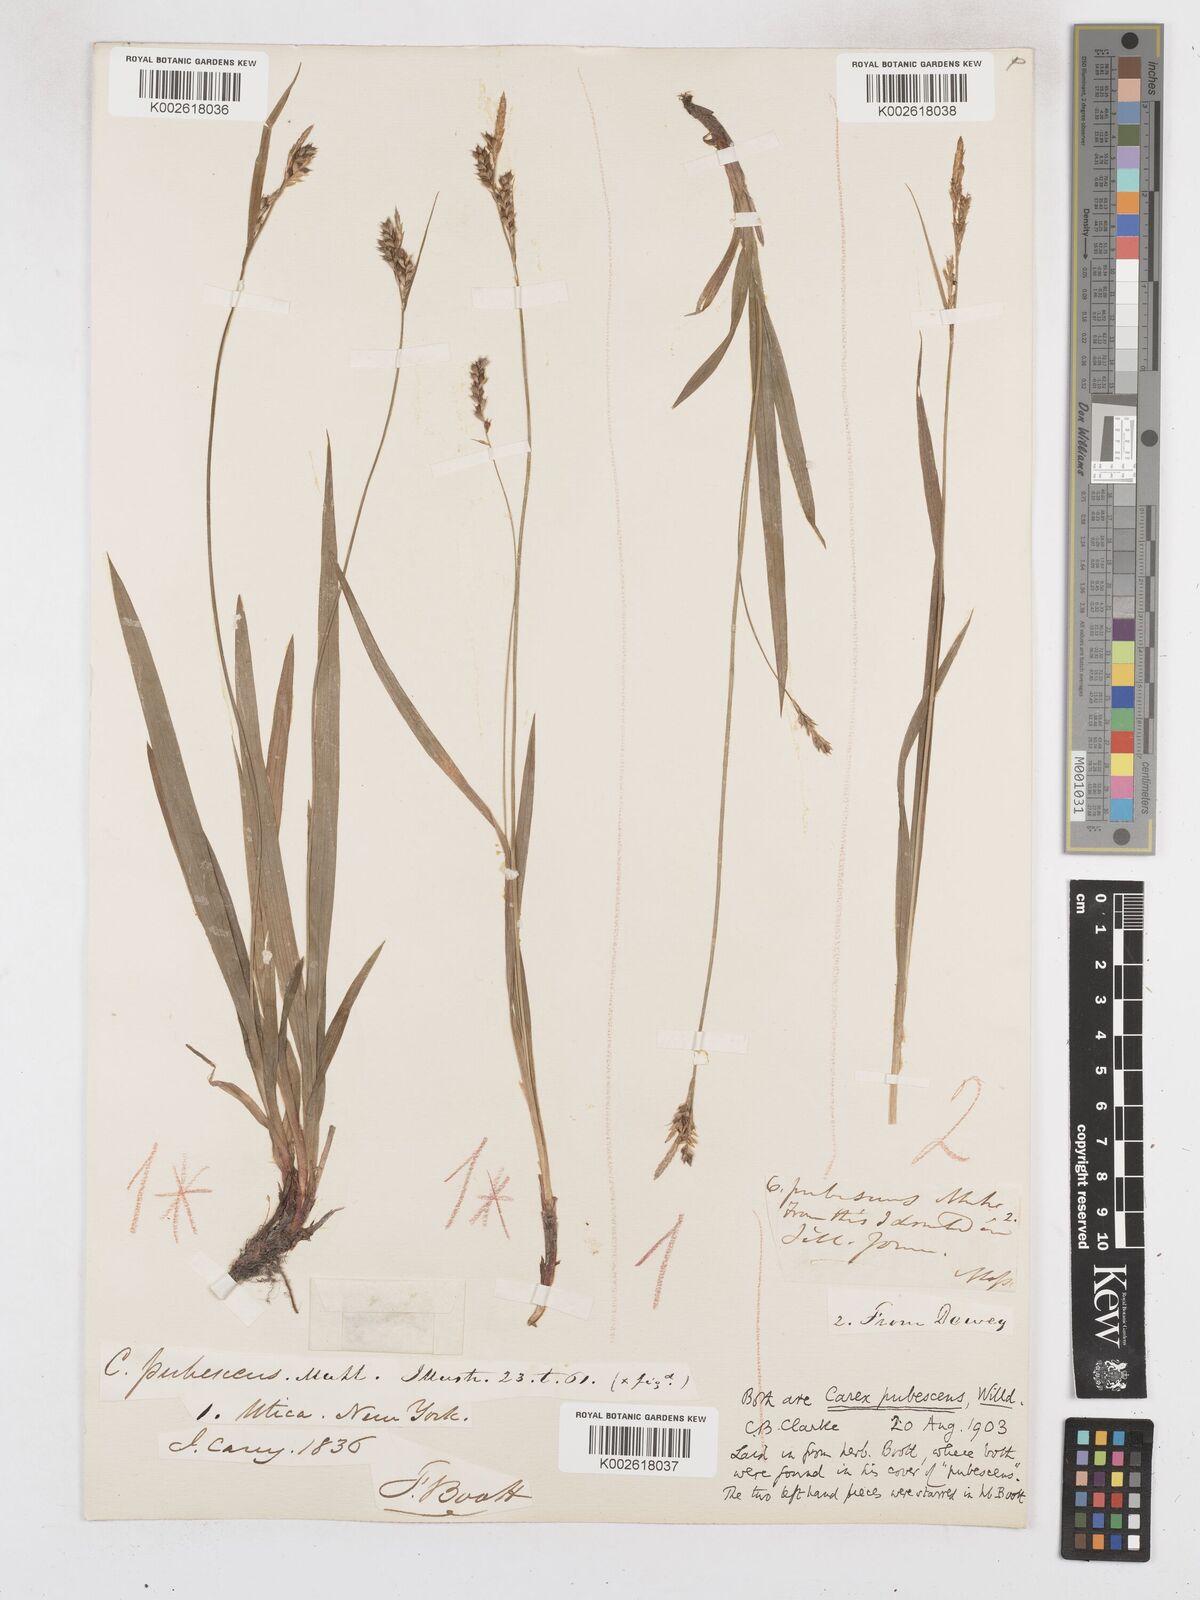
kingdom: Plantae
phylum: Tracheophyta
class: Liliopsida
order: Poales
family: Cyperaceae
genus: Carex
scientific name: Carex hirtifolia
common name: Hairy sedge
